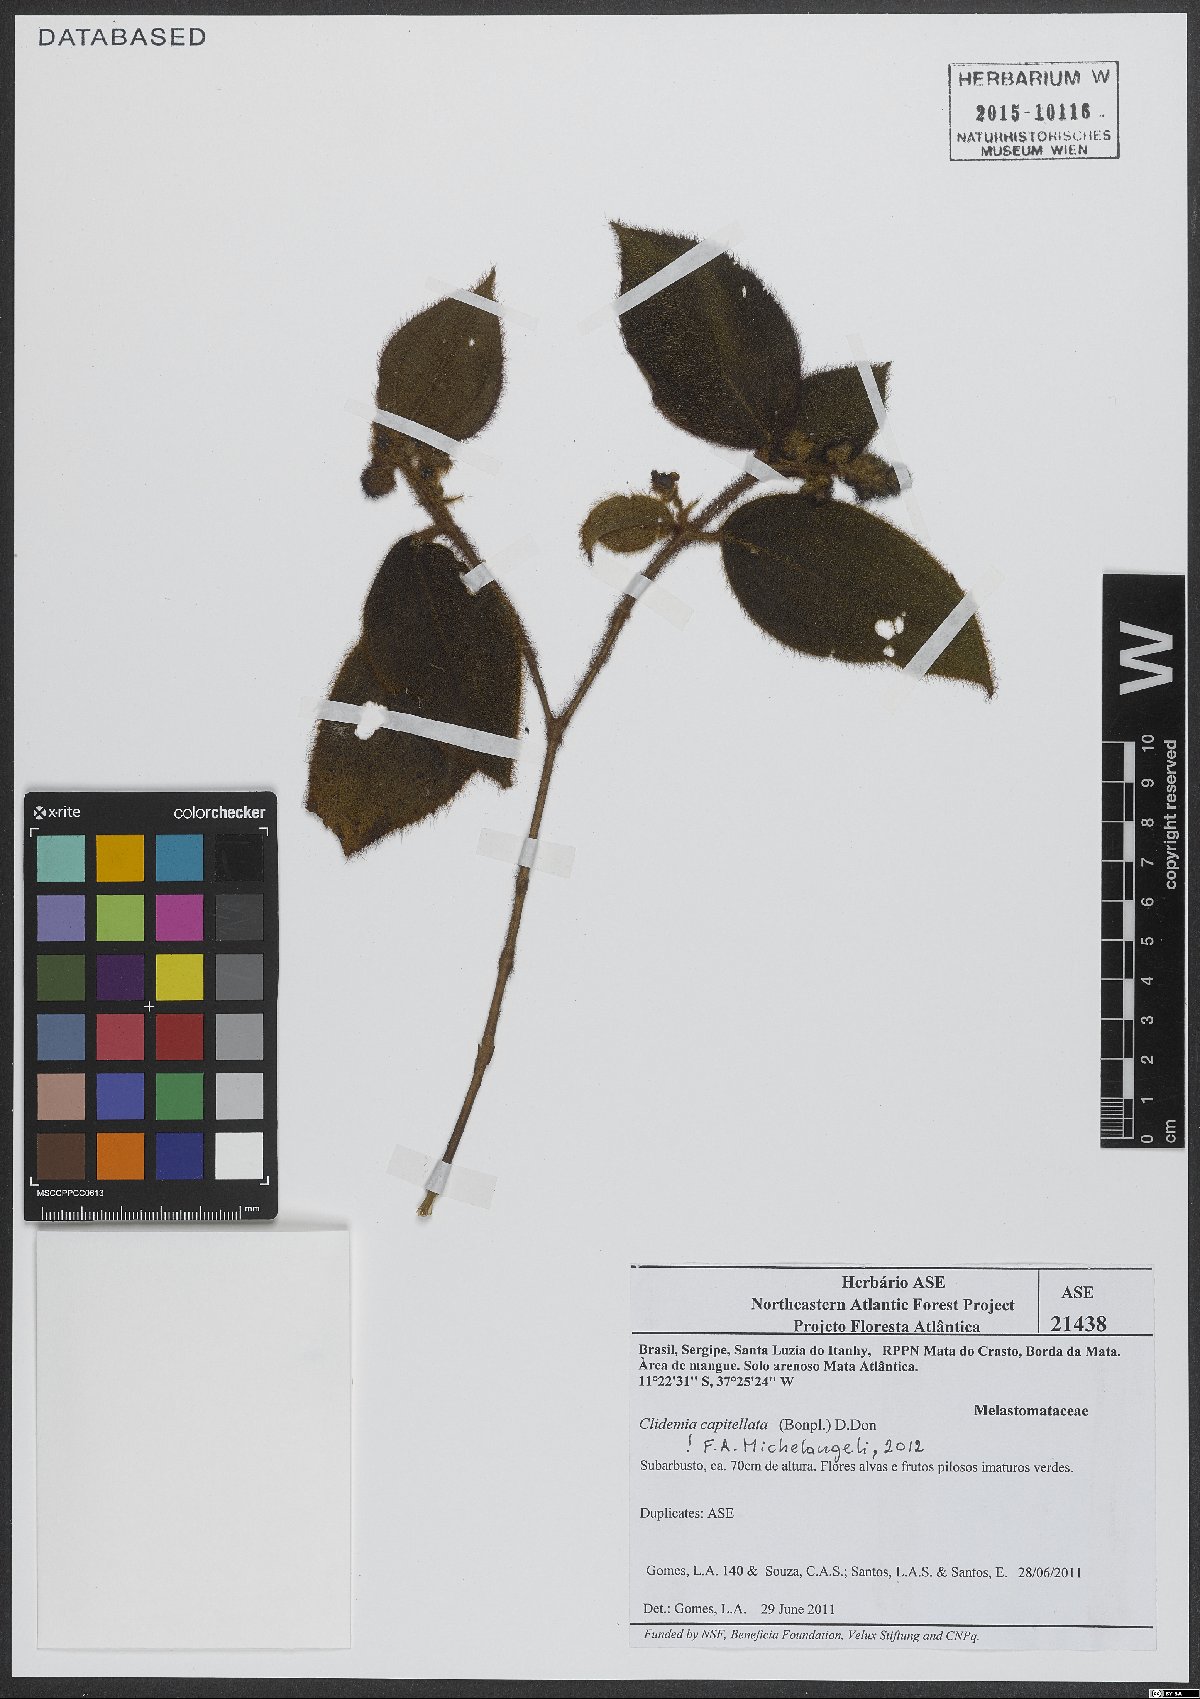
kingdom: Plantae
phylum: Tracheophyta
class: Magnoliopsida
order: Myrtales
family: Melastomataceae
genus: Miconia
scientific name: Miconia dependens
